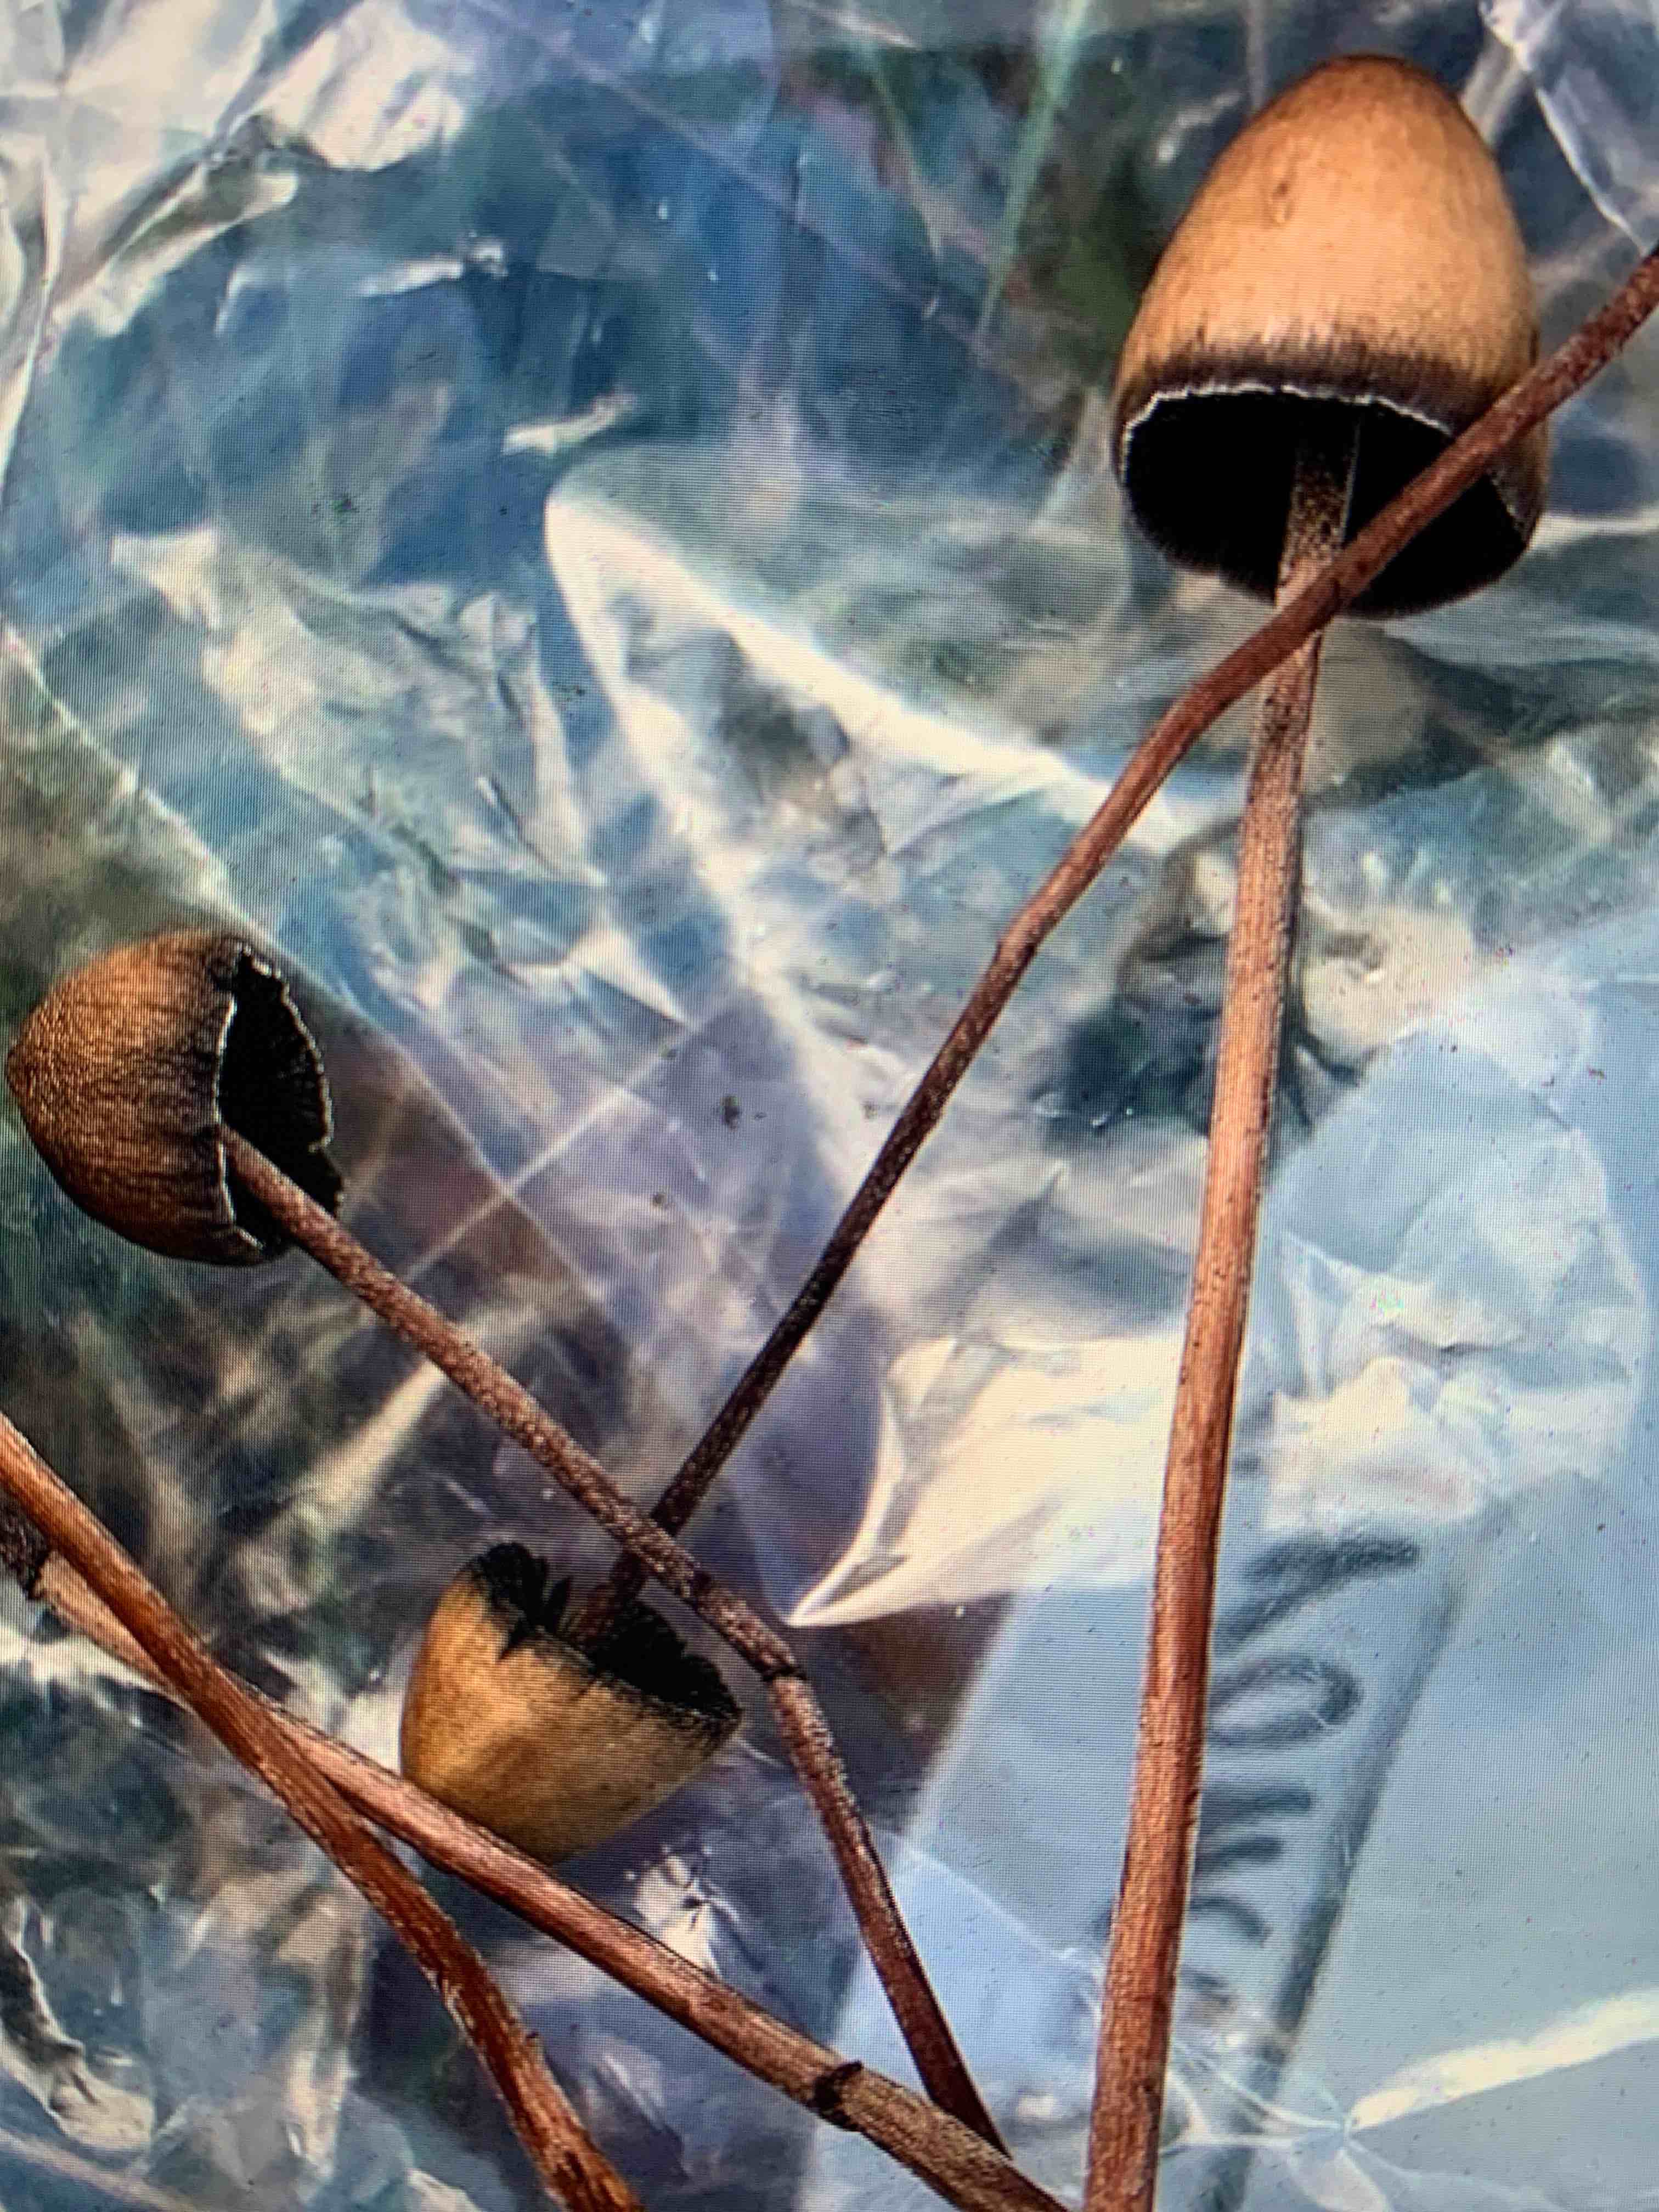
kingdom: Fungi
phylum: Basidiomycota
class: Agaricomycetes
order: Agaricales
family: Bolbitiaceae
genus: Panaeolus
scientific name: Panaeolus
